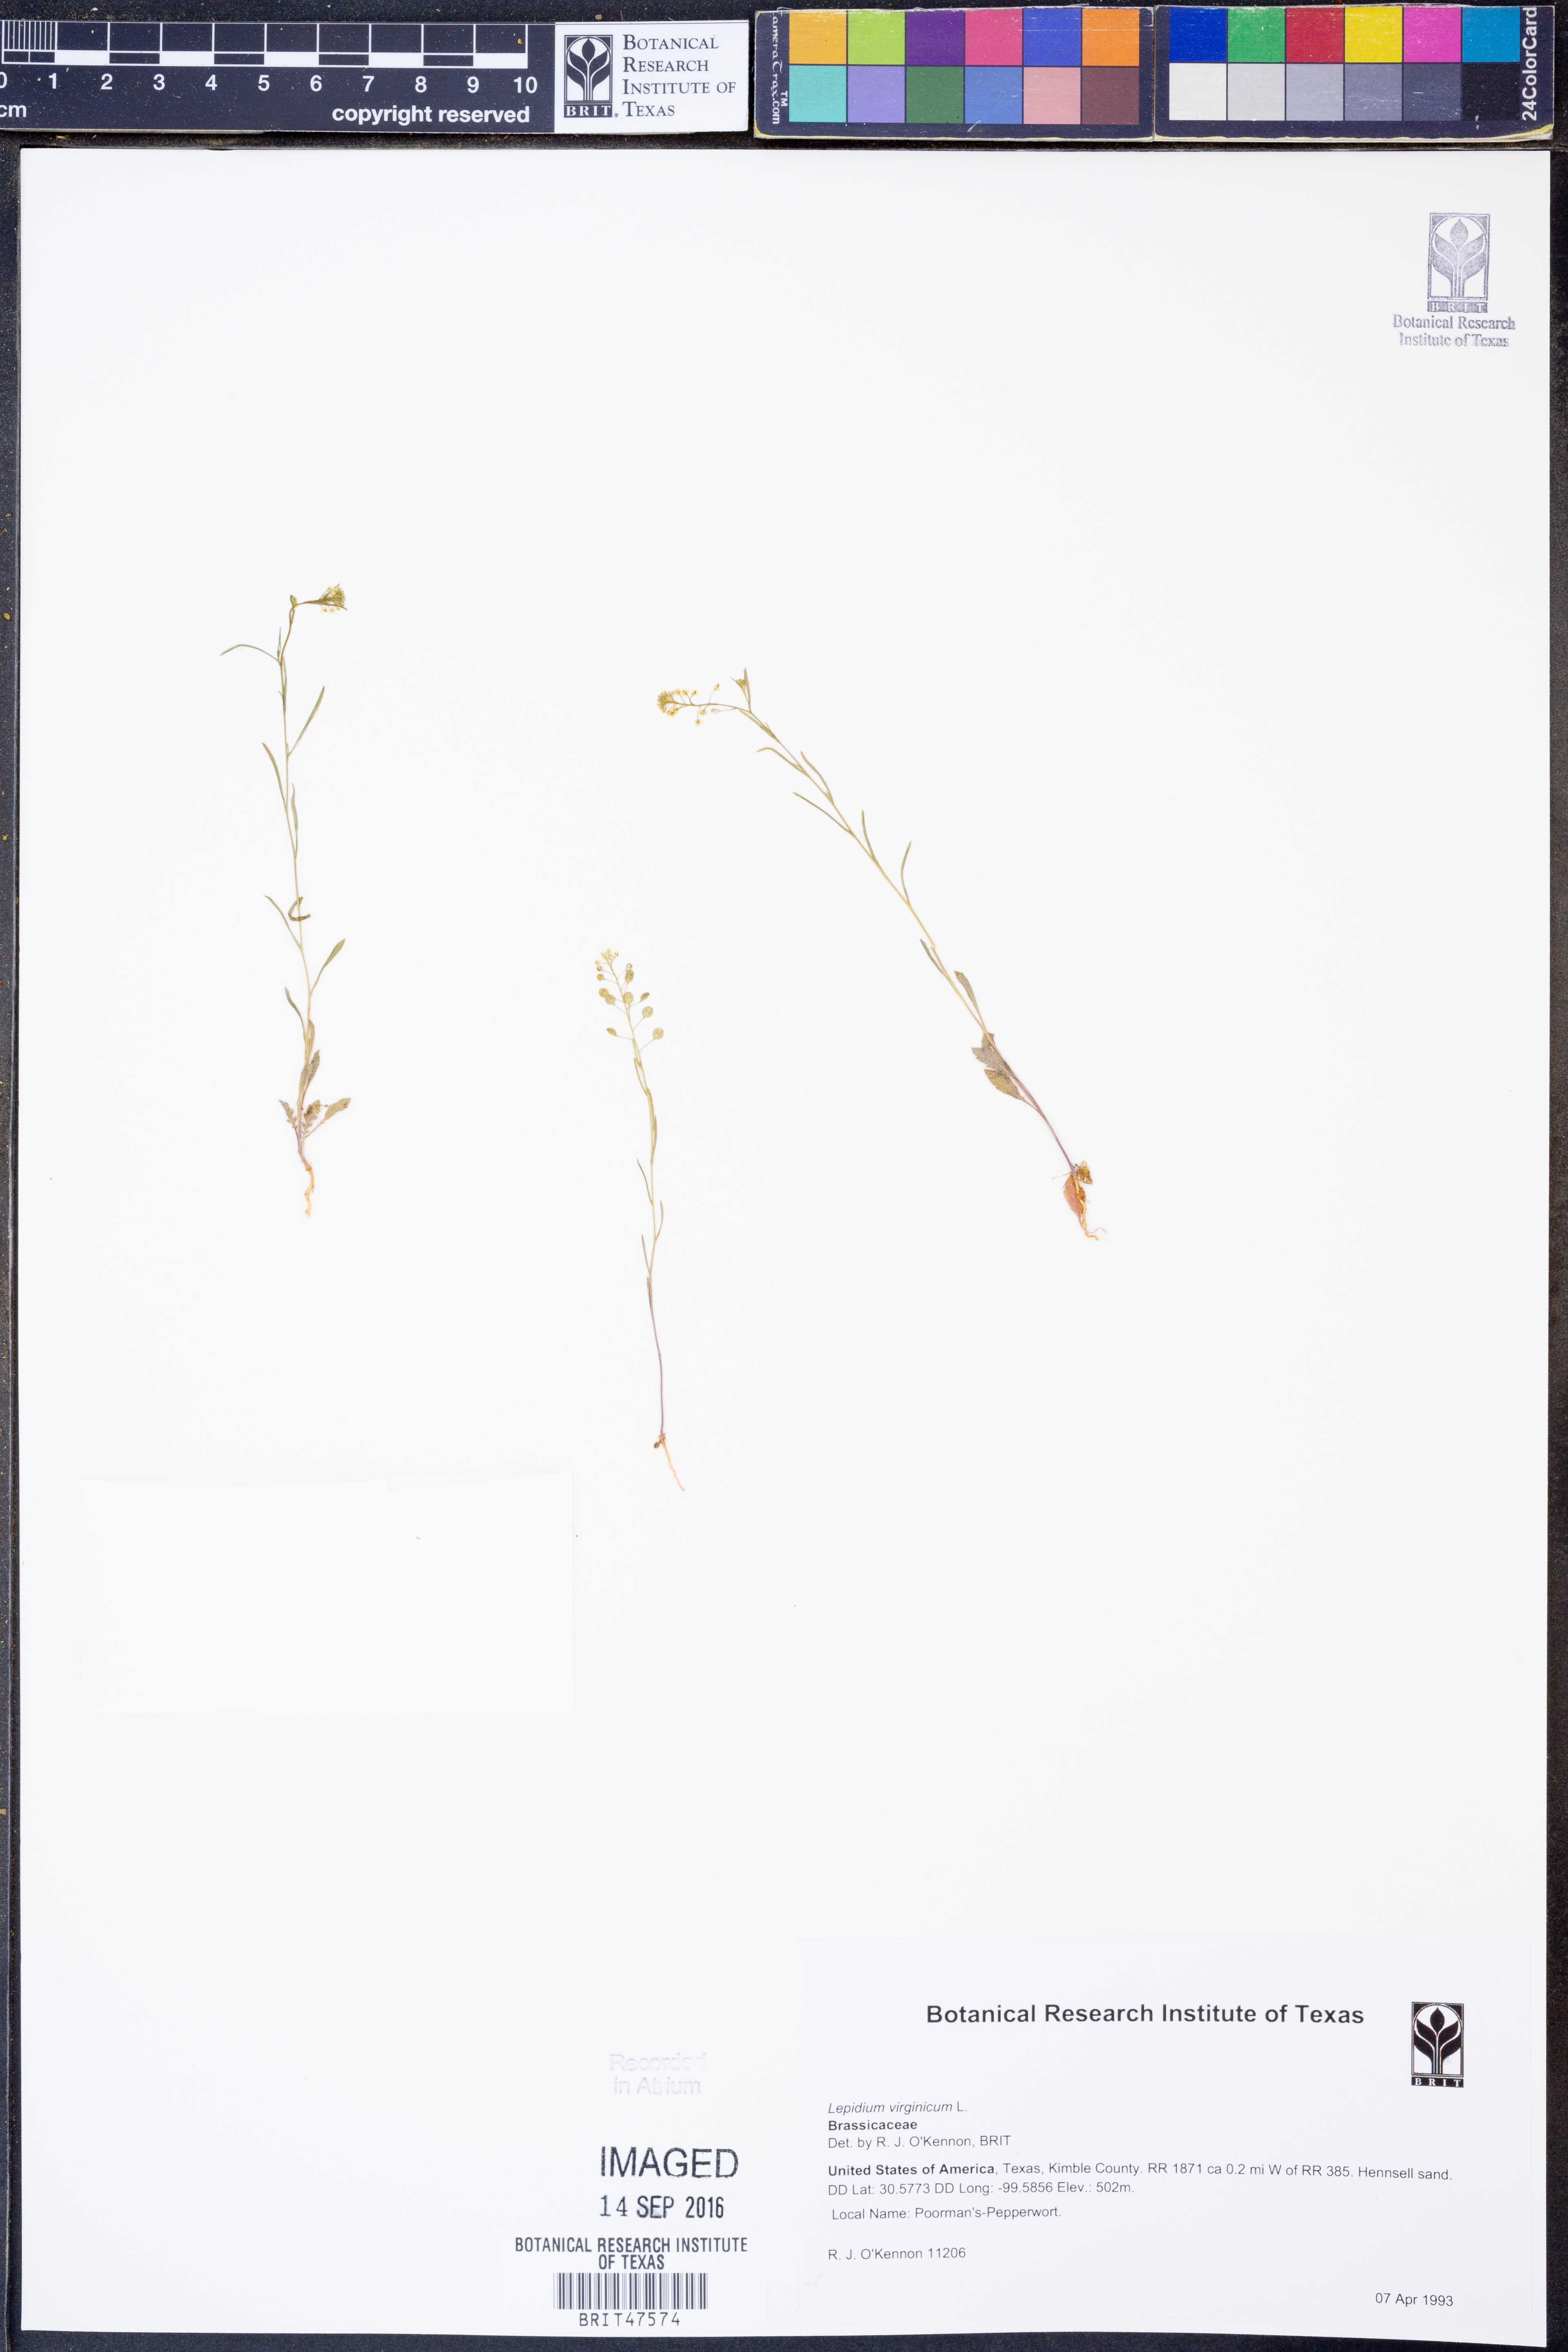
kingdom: Plantae
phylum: Tracheophyta
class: Magnoliopsida
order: Brassicales
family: Brassicaceae
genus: Lepidium
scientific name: Lepidium virginicum
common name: Least pepperwort
